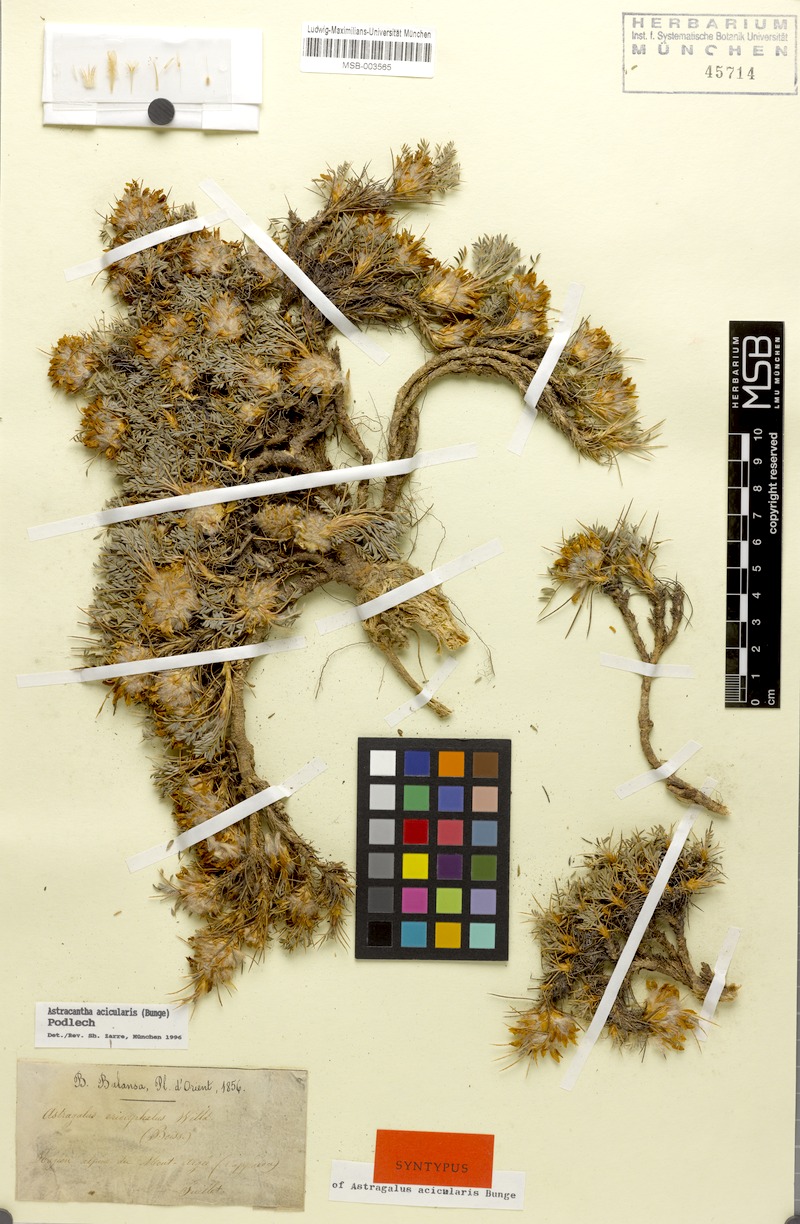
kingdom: Plantae
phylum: Tracheophyta
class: Magnoliopsida
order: Fabales
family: Fabaceae
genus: Astragalus
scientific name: Astragalus acicularis
